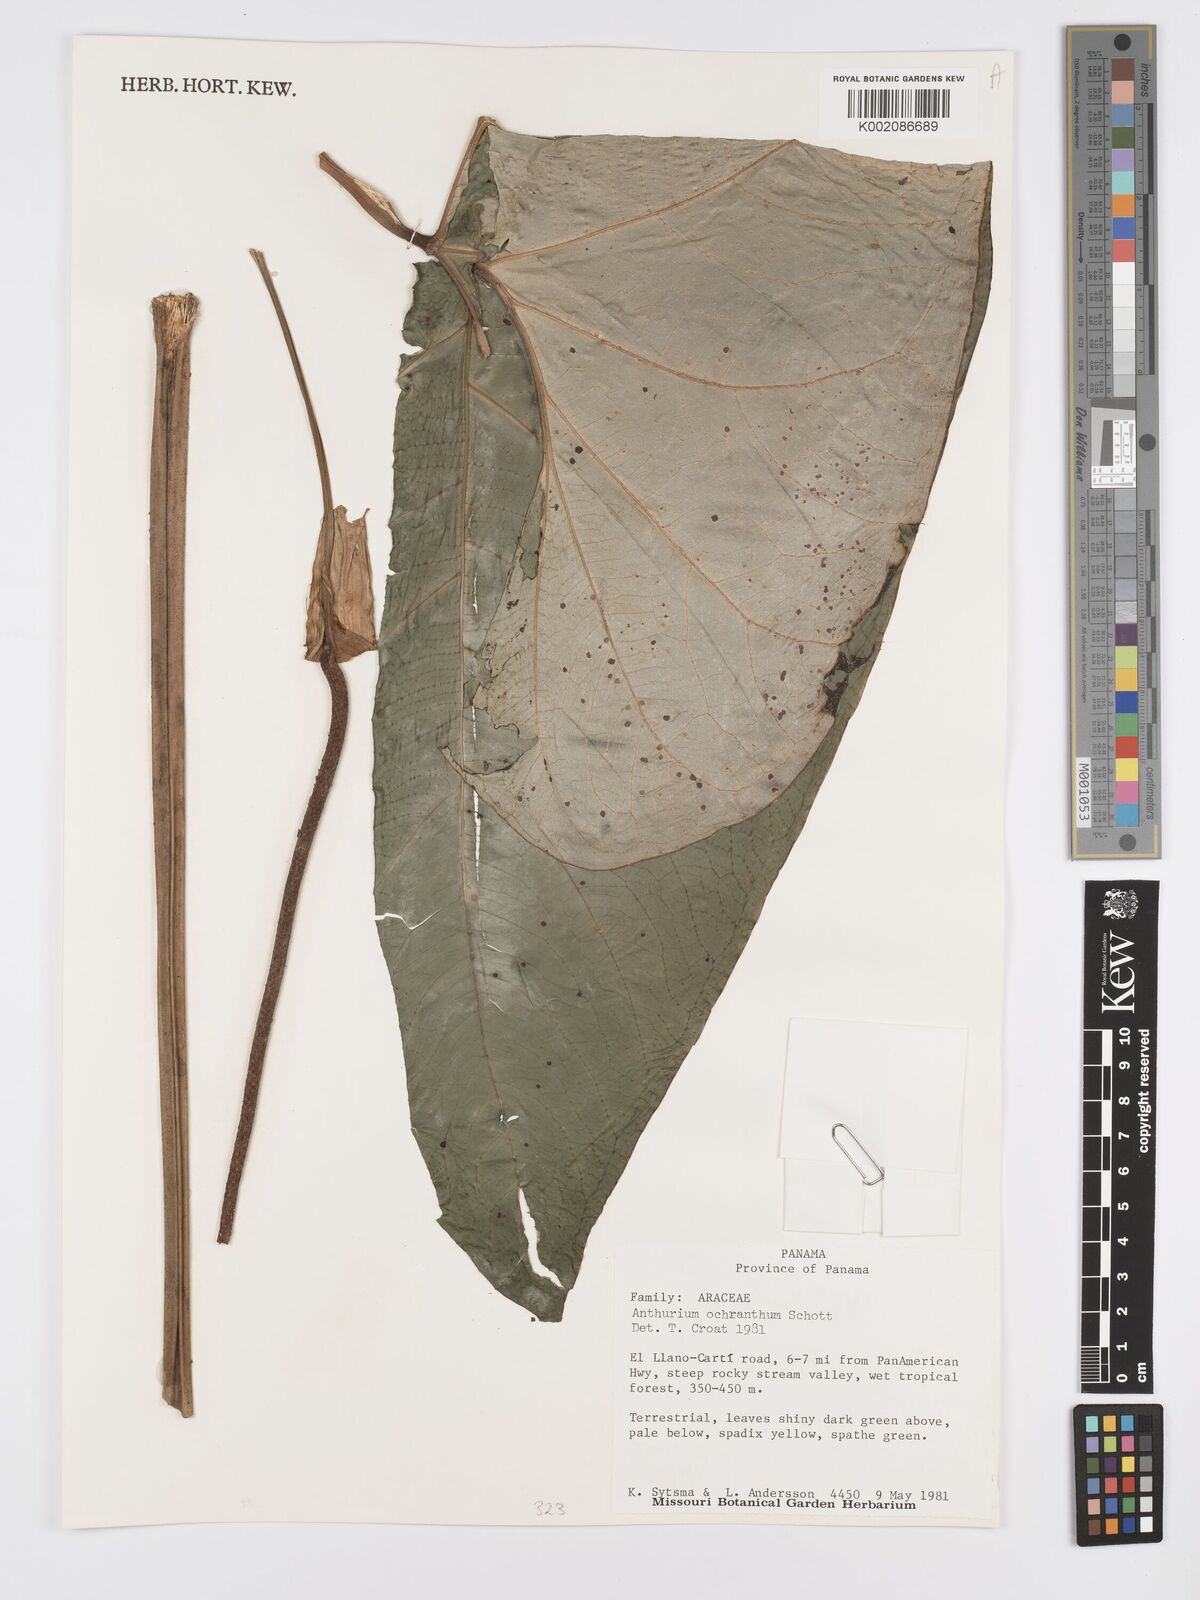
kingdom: Plantae
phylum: Tracheophyta
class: Liliopsida
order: Alismatales
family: Araceae
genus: Anthurium
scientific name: Anthurium ochranthum
